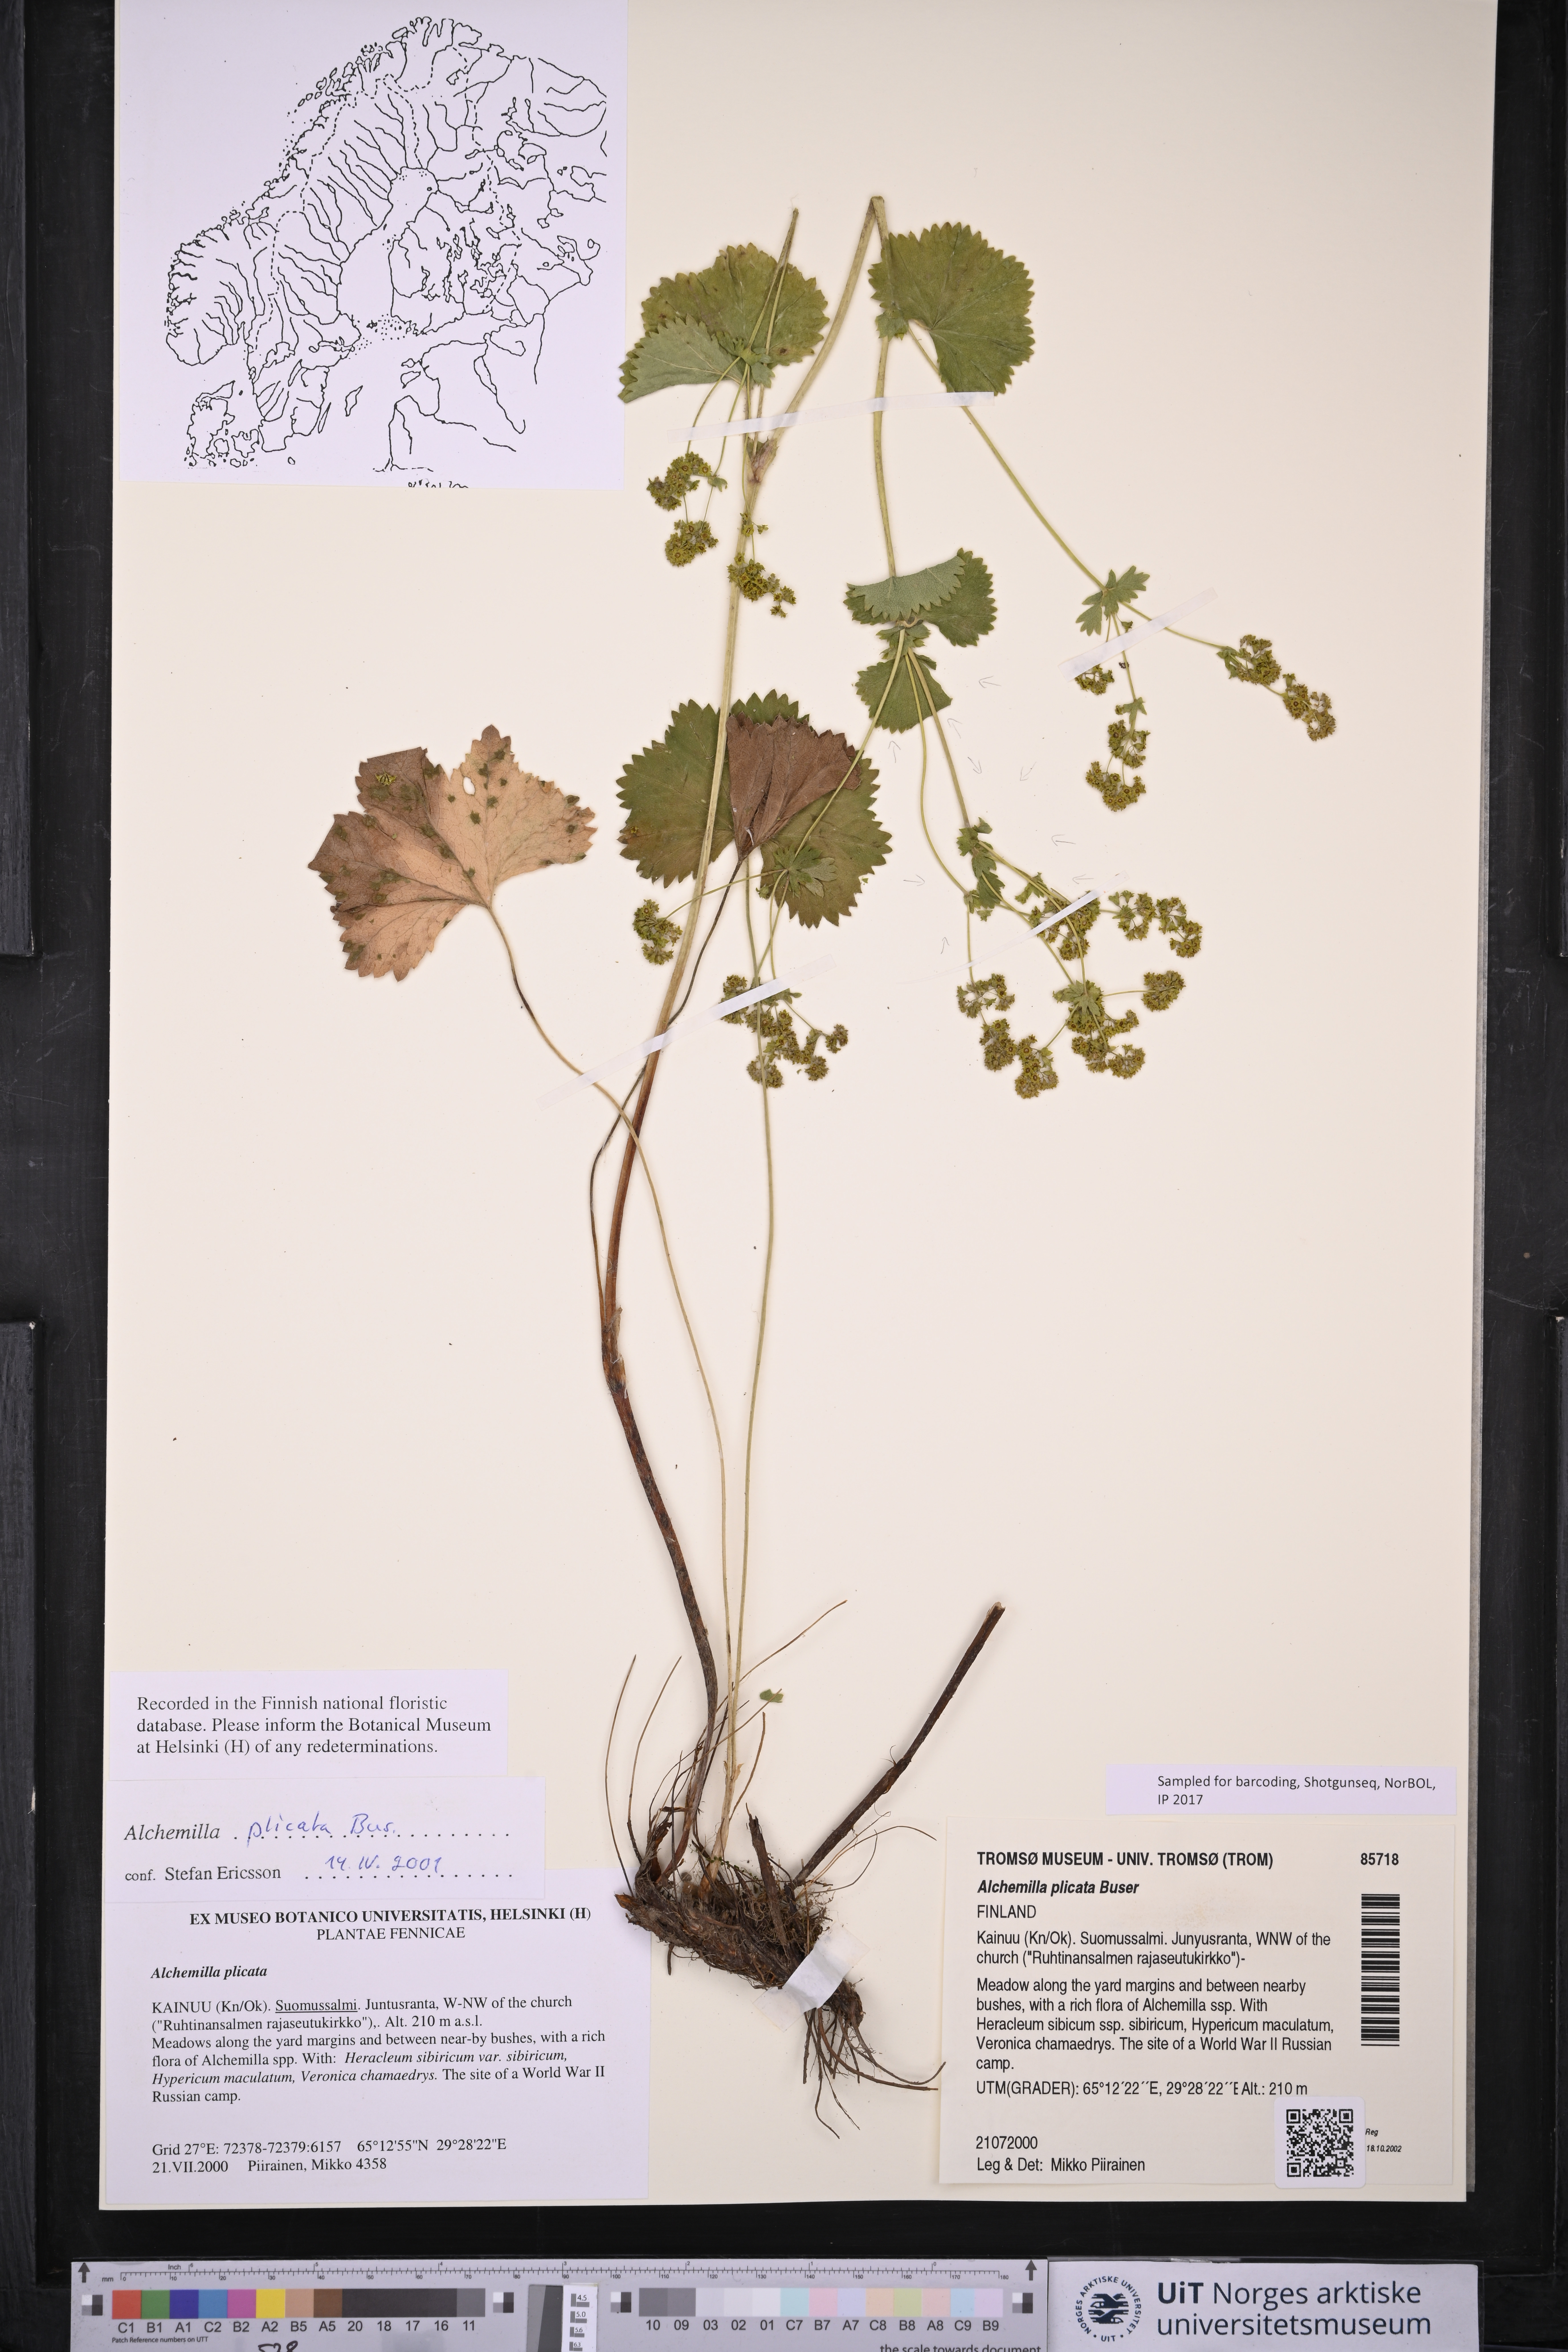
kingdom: Plantae
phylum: Tracheophyta
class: Magnoliopsida
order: Rosales
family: Rosaceae
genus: Alchemilla
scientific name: Alchemilla plicata
